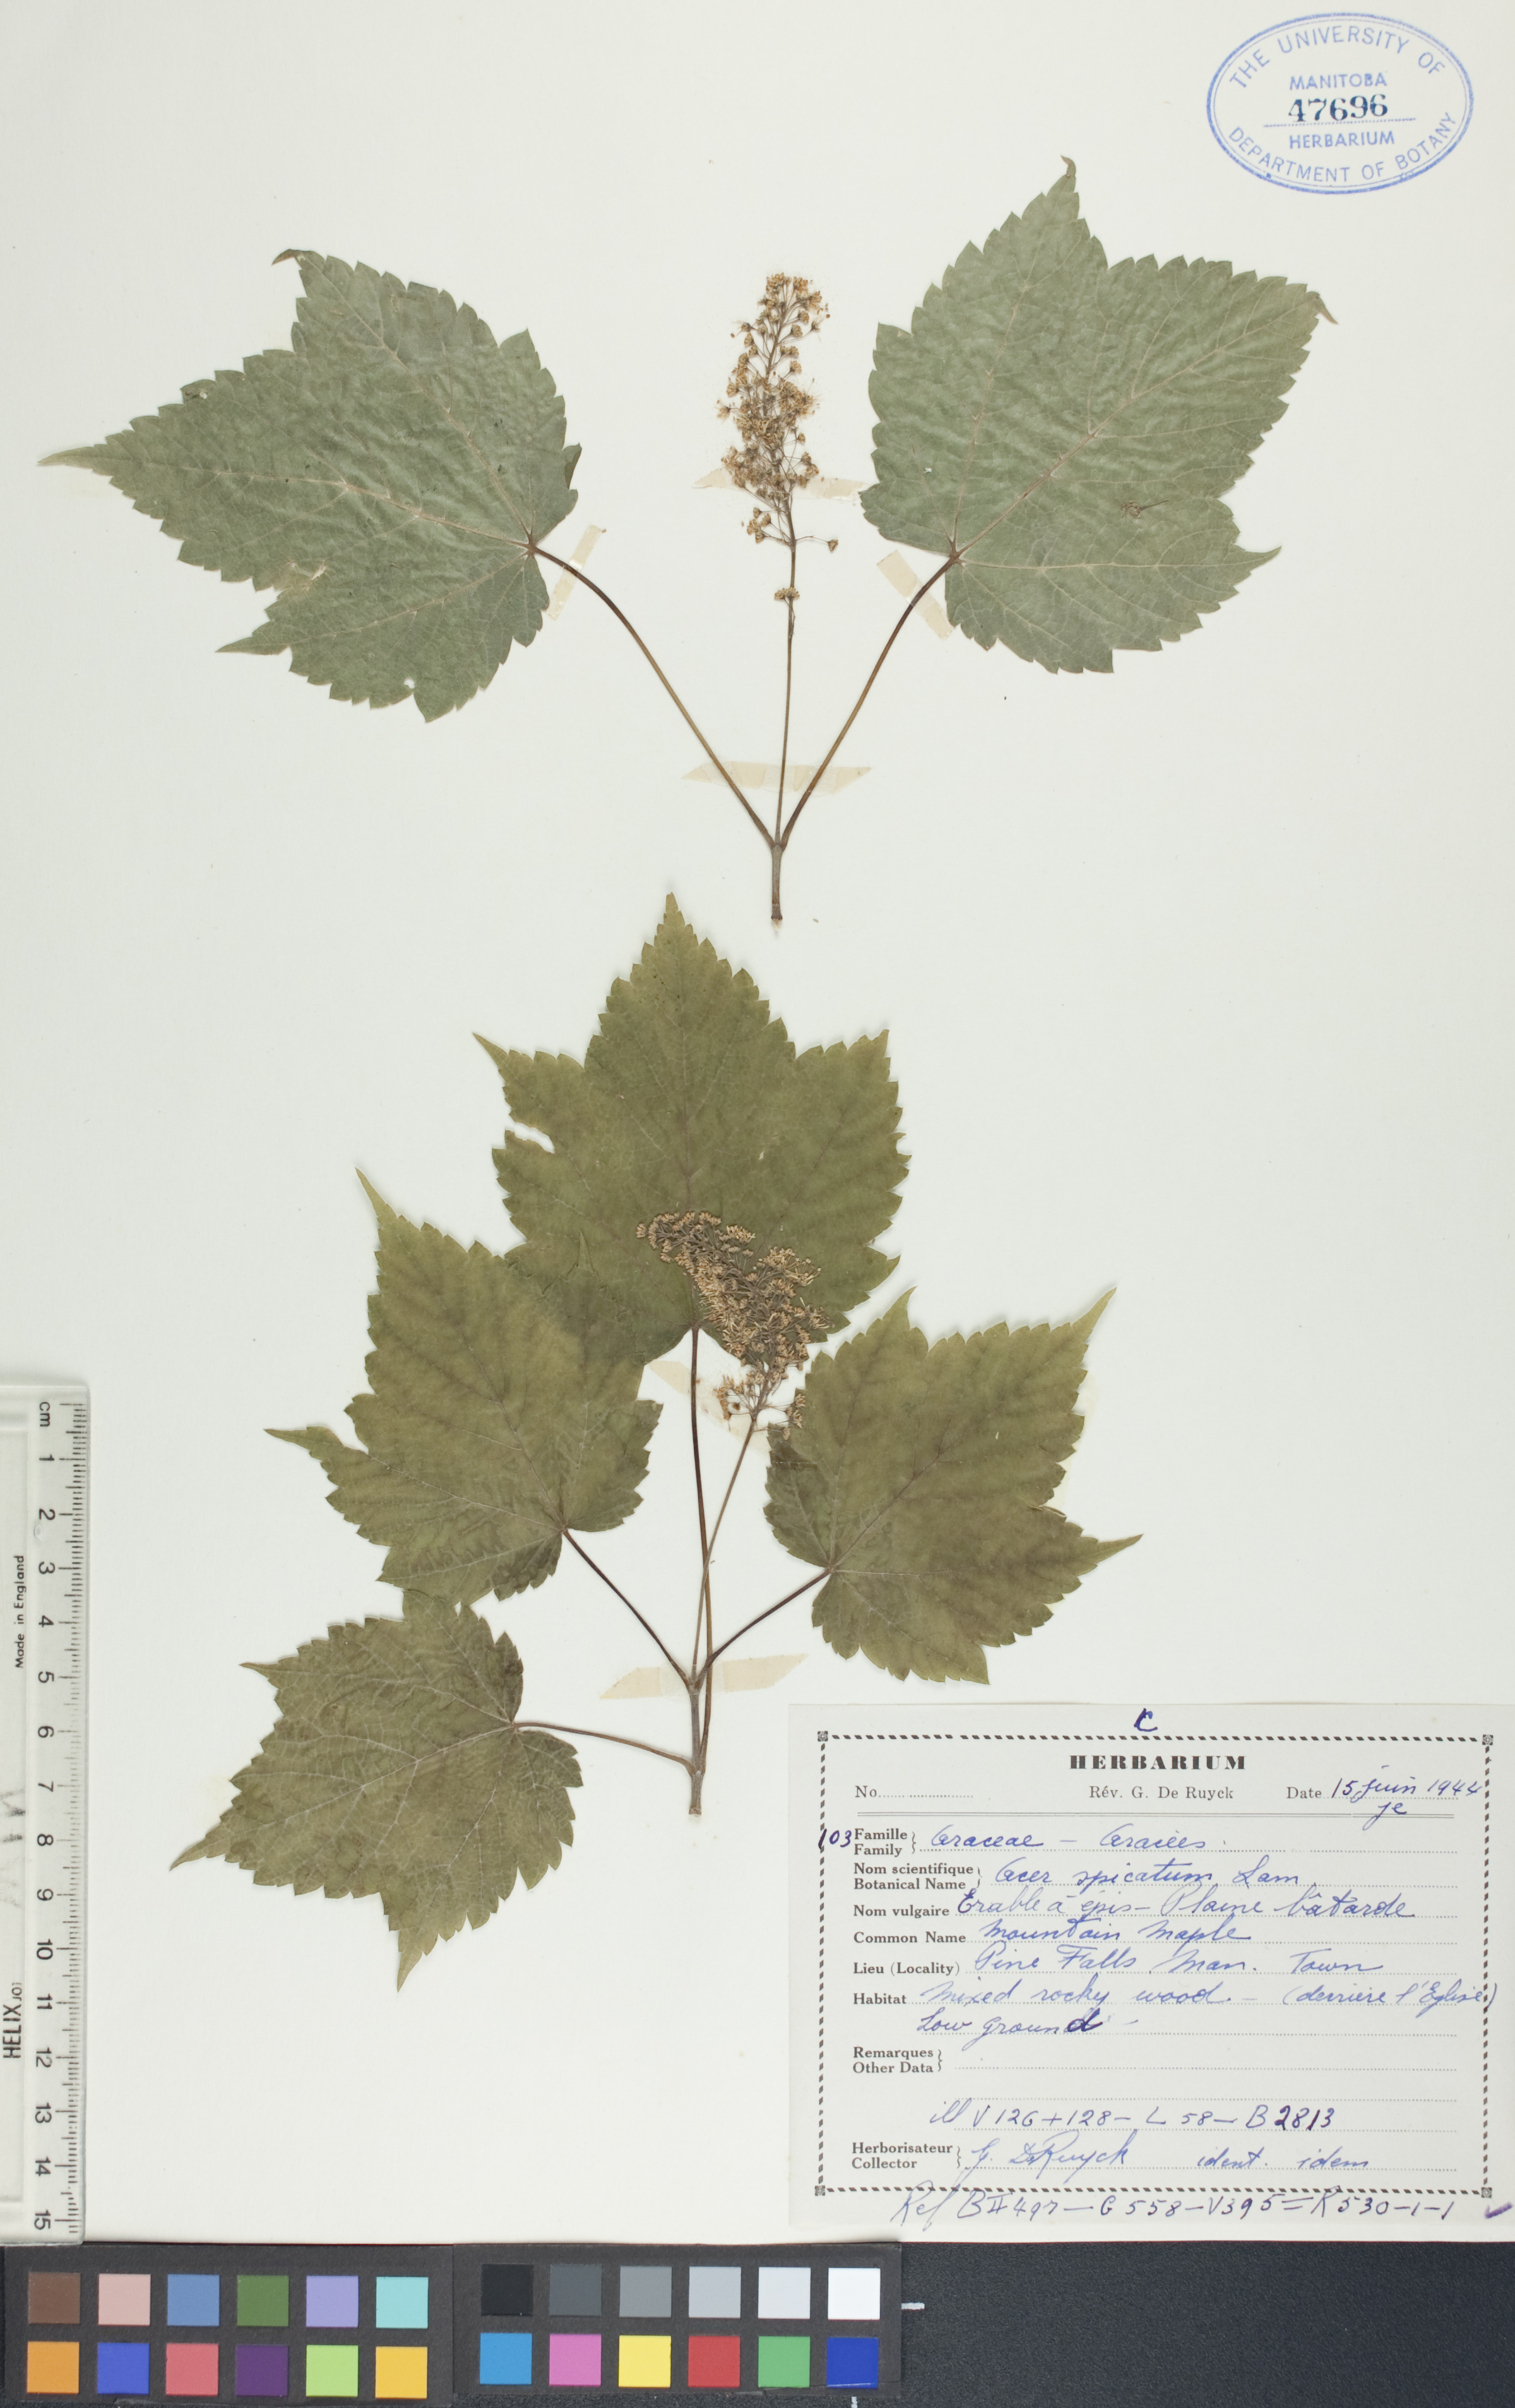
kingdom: Plantae
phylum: Tracheophyta
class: Magnoliopsida
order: Sapindales
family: Sapindaceae
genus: Acer
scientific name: Acer spicatum
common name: Mountain maple
